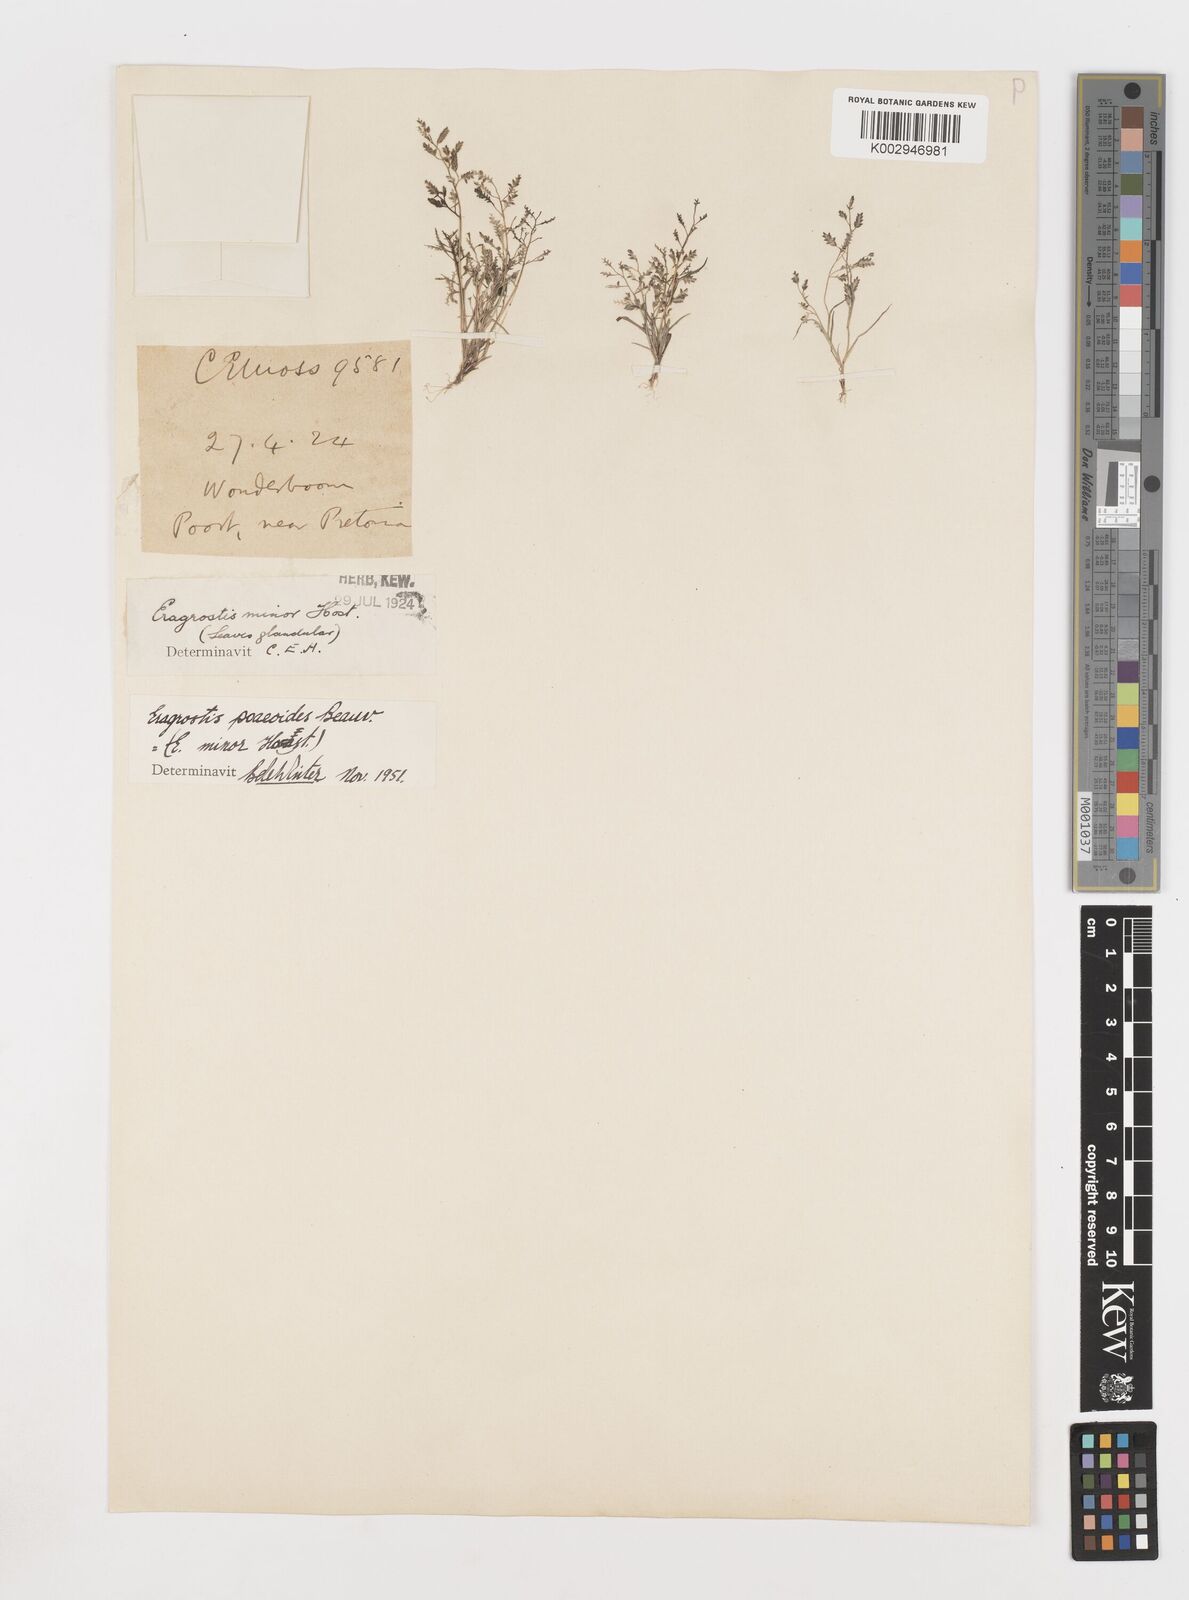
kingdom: Plantae
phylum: Tracheophyta
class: Liliopsida
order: Poales
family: Poaceae
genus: Eragrostis
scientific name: Eragrostis minor
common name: Small love-grass
